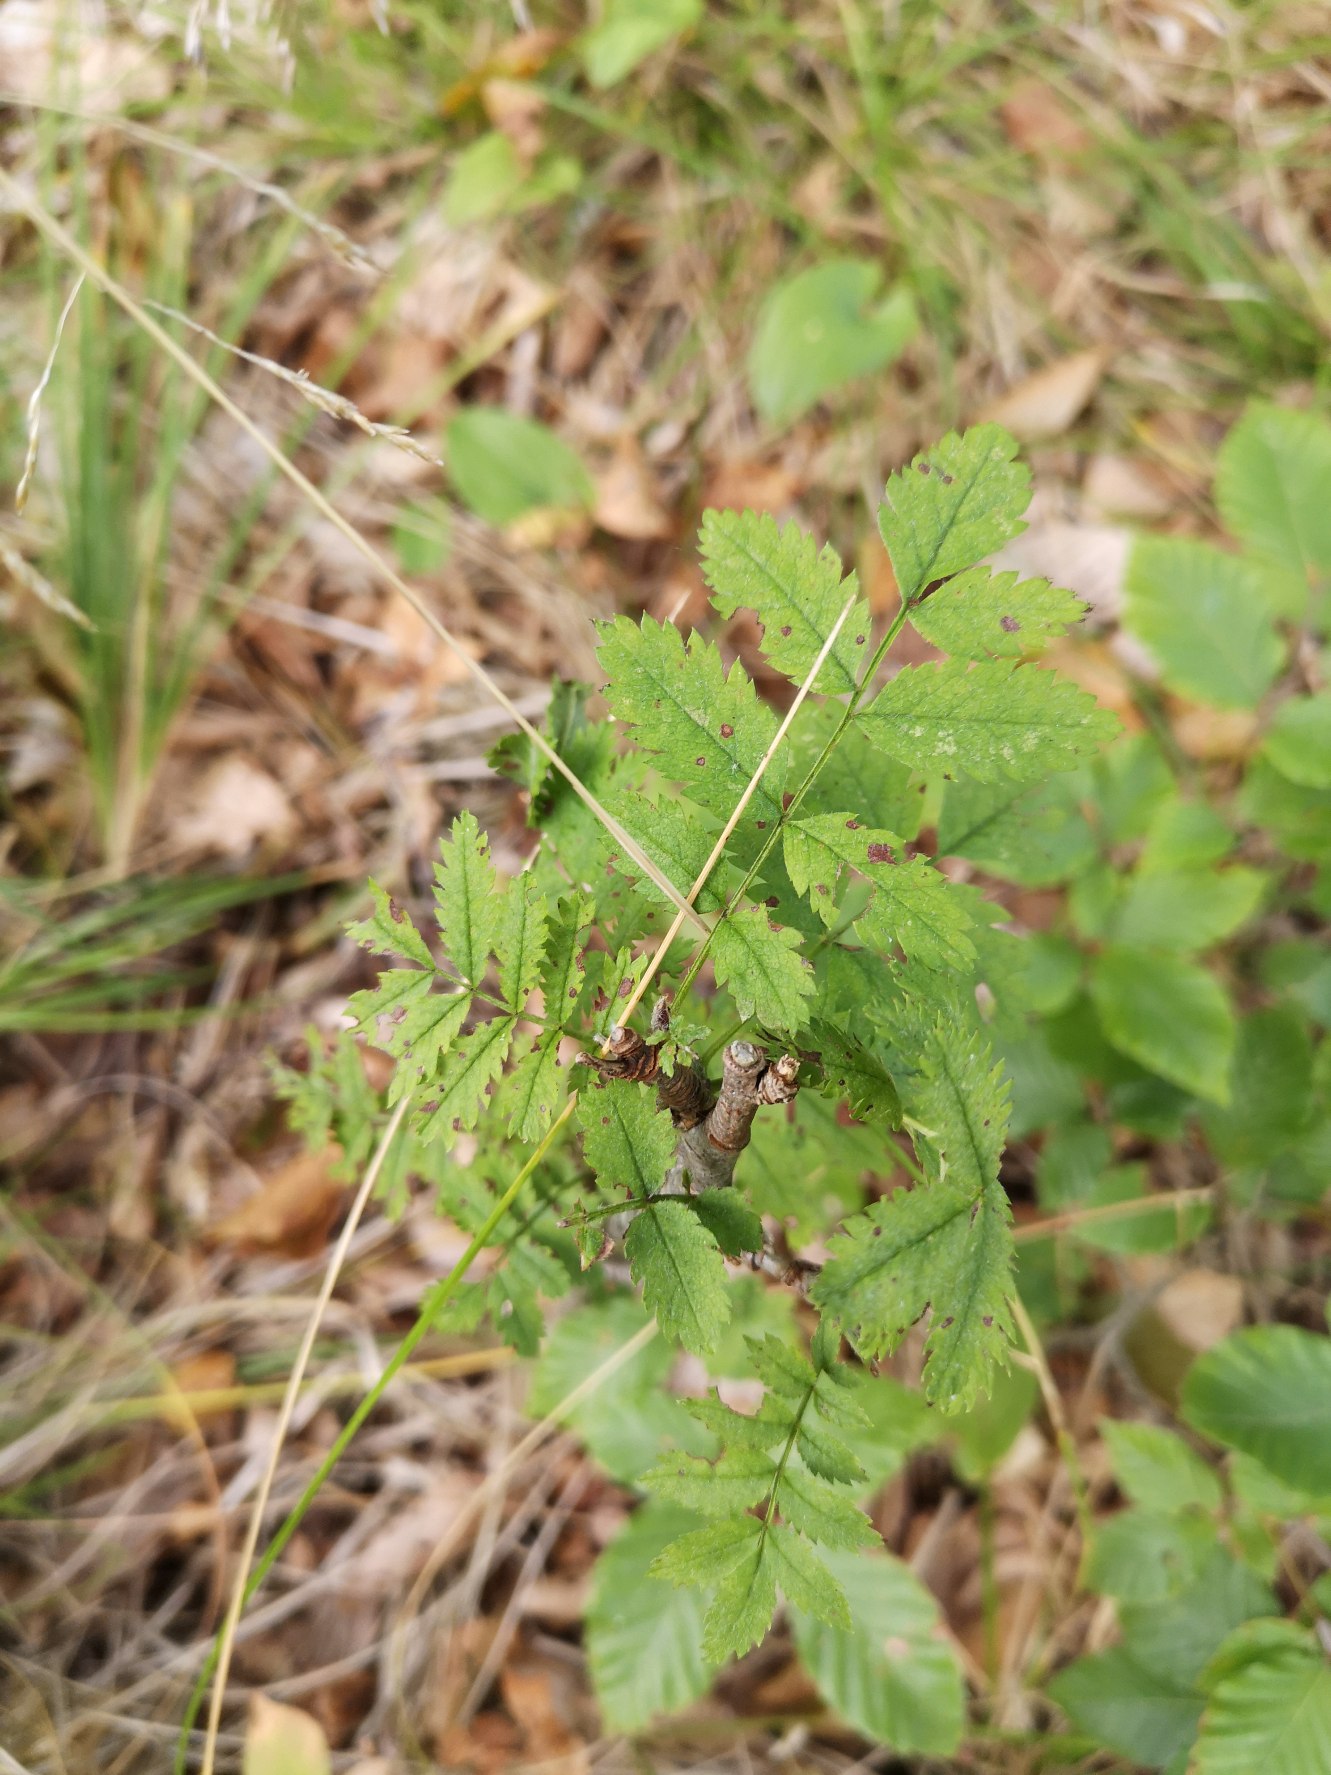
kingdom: Plantae
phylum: Tracheophyta
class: Magnoliopsida
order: Rosales
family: Rosaceae
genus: Sorbus
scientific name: Sorbus aucuparia
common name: Almindelig røn
